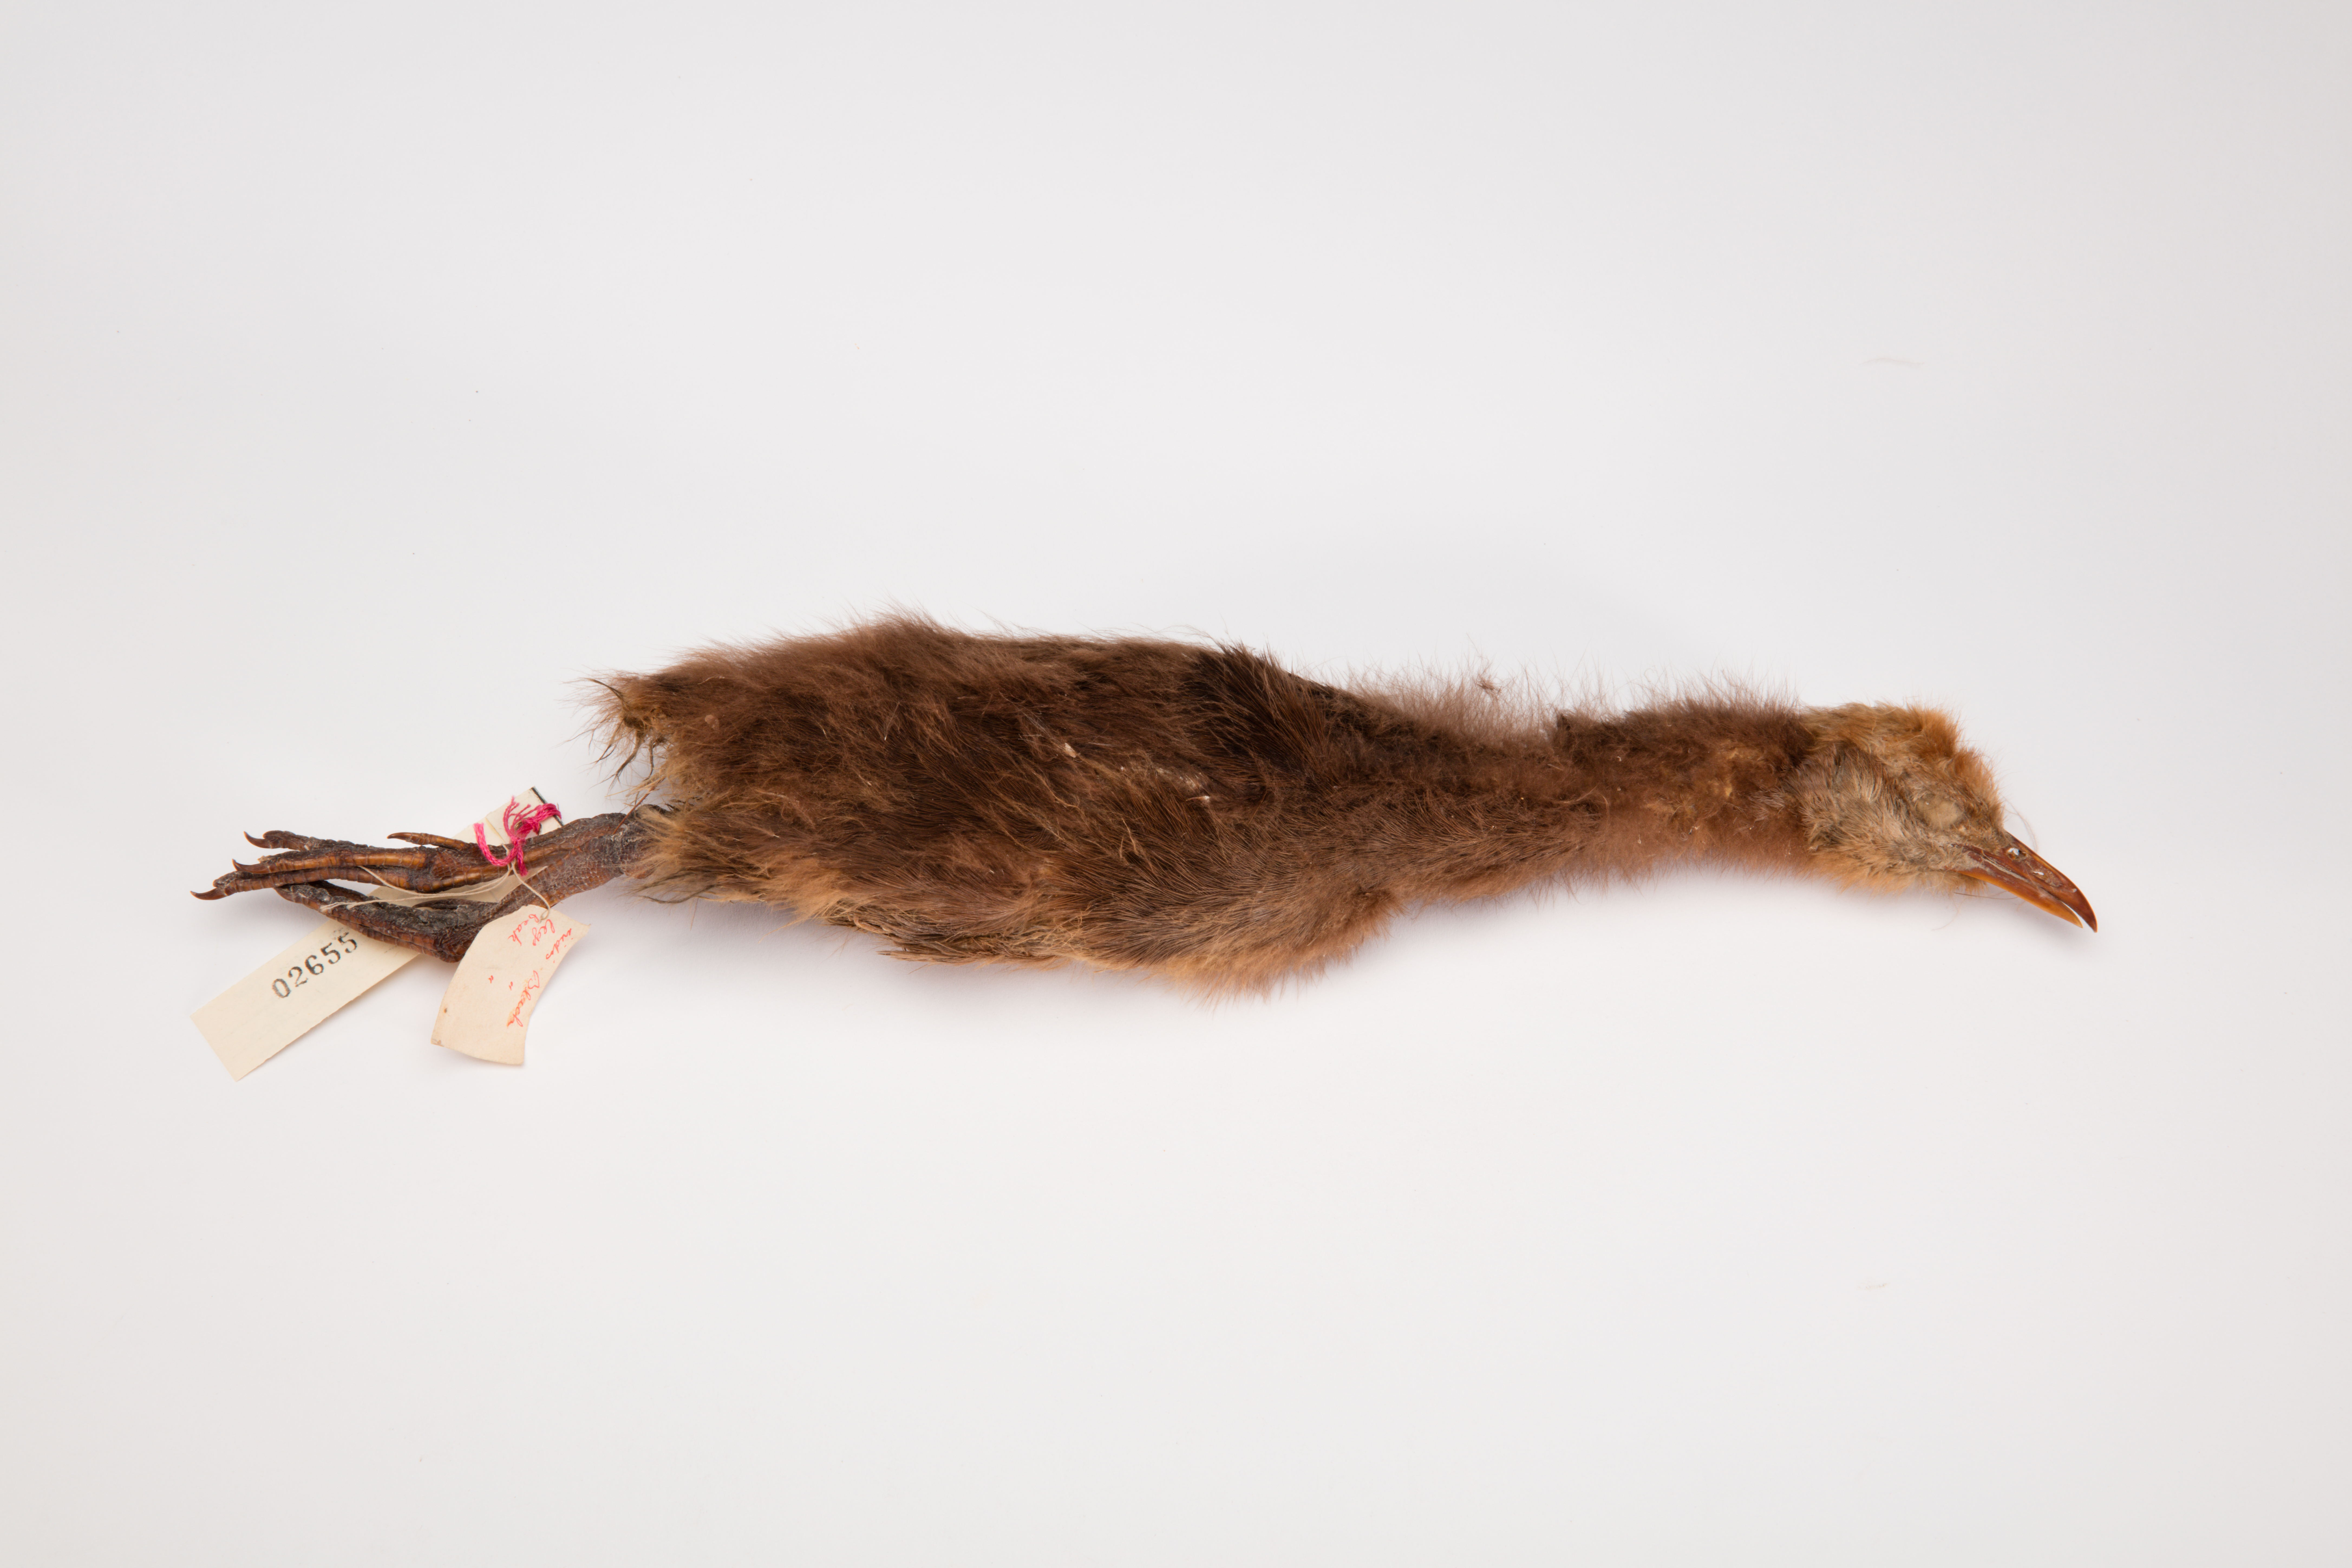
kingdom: Animalia
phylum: Chordata
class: Aves
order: Gruiformes
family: Rallidae
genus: Gallirallus
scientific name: Gallirallus australis
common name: Weka
